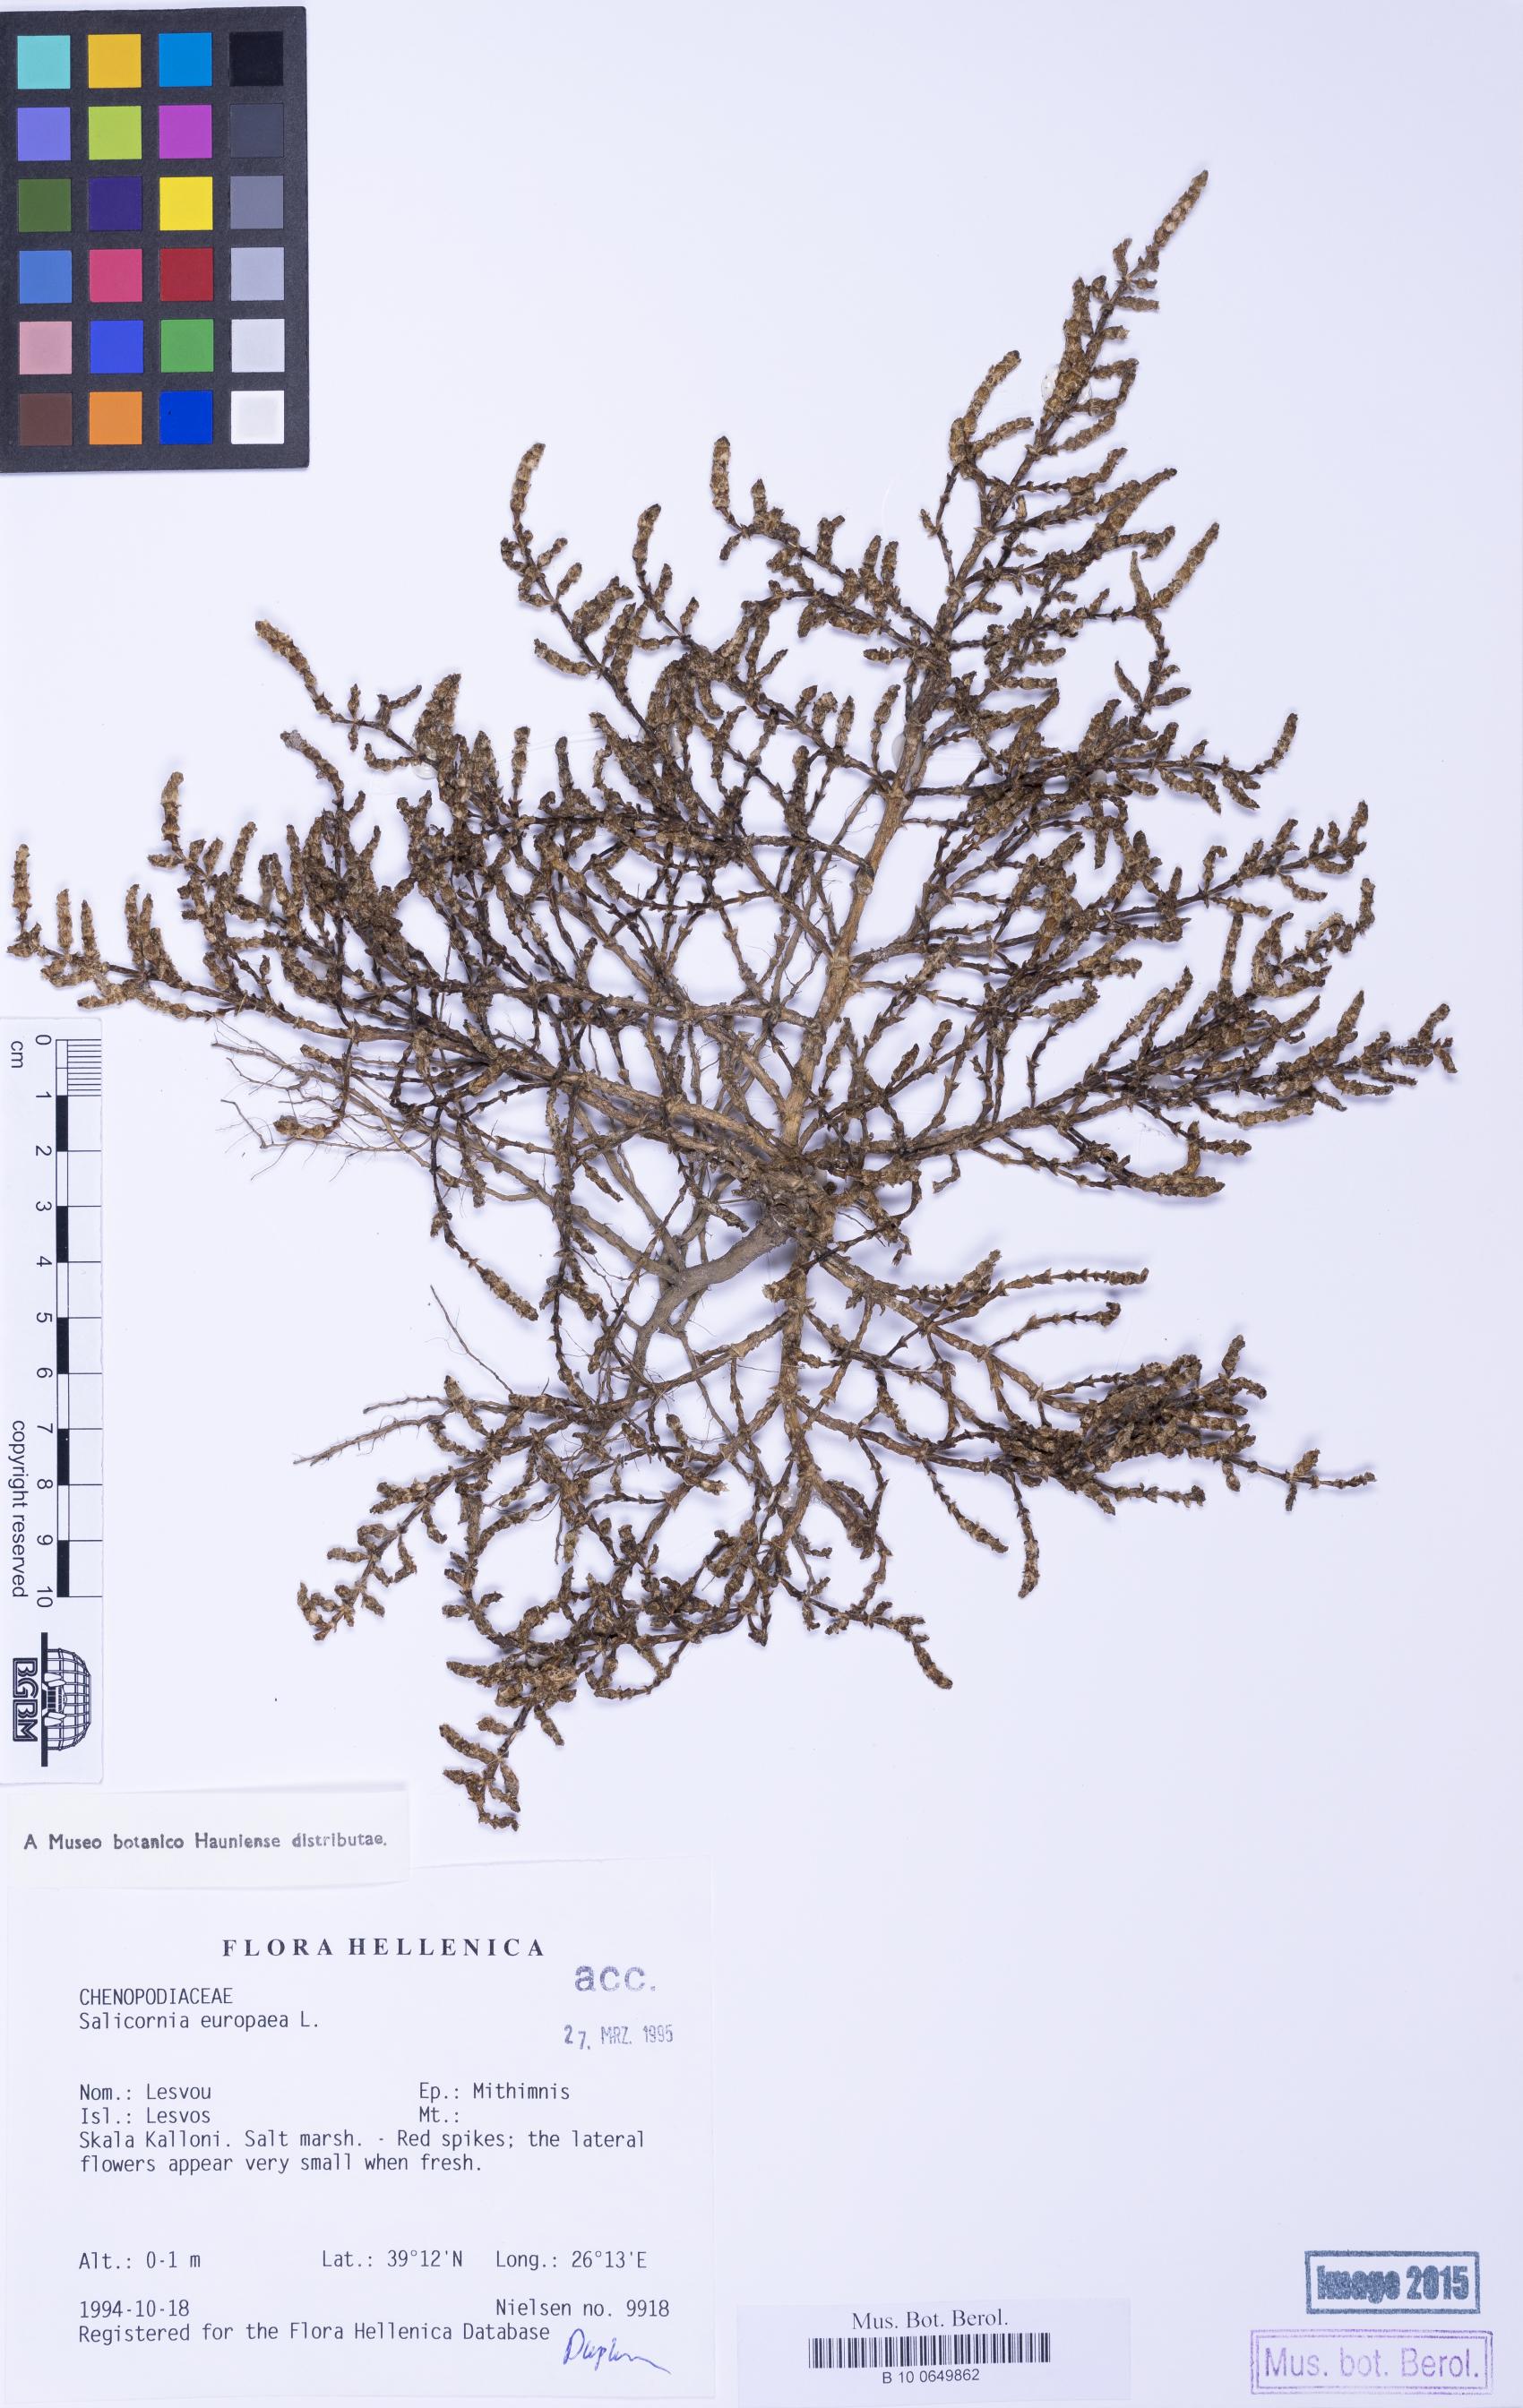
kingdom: Plantae
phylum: Tracheophyta
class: Magnoliopsida
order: Caryophyllales
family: Amaranthaceae
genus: Salicornia
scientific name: Salicornia perennans
